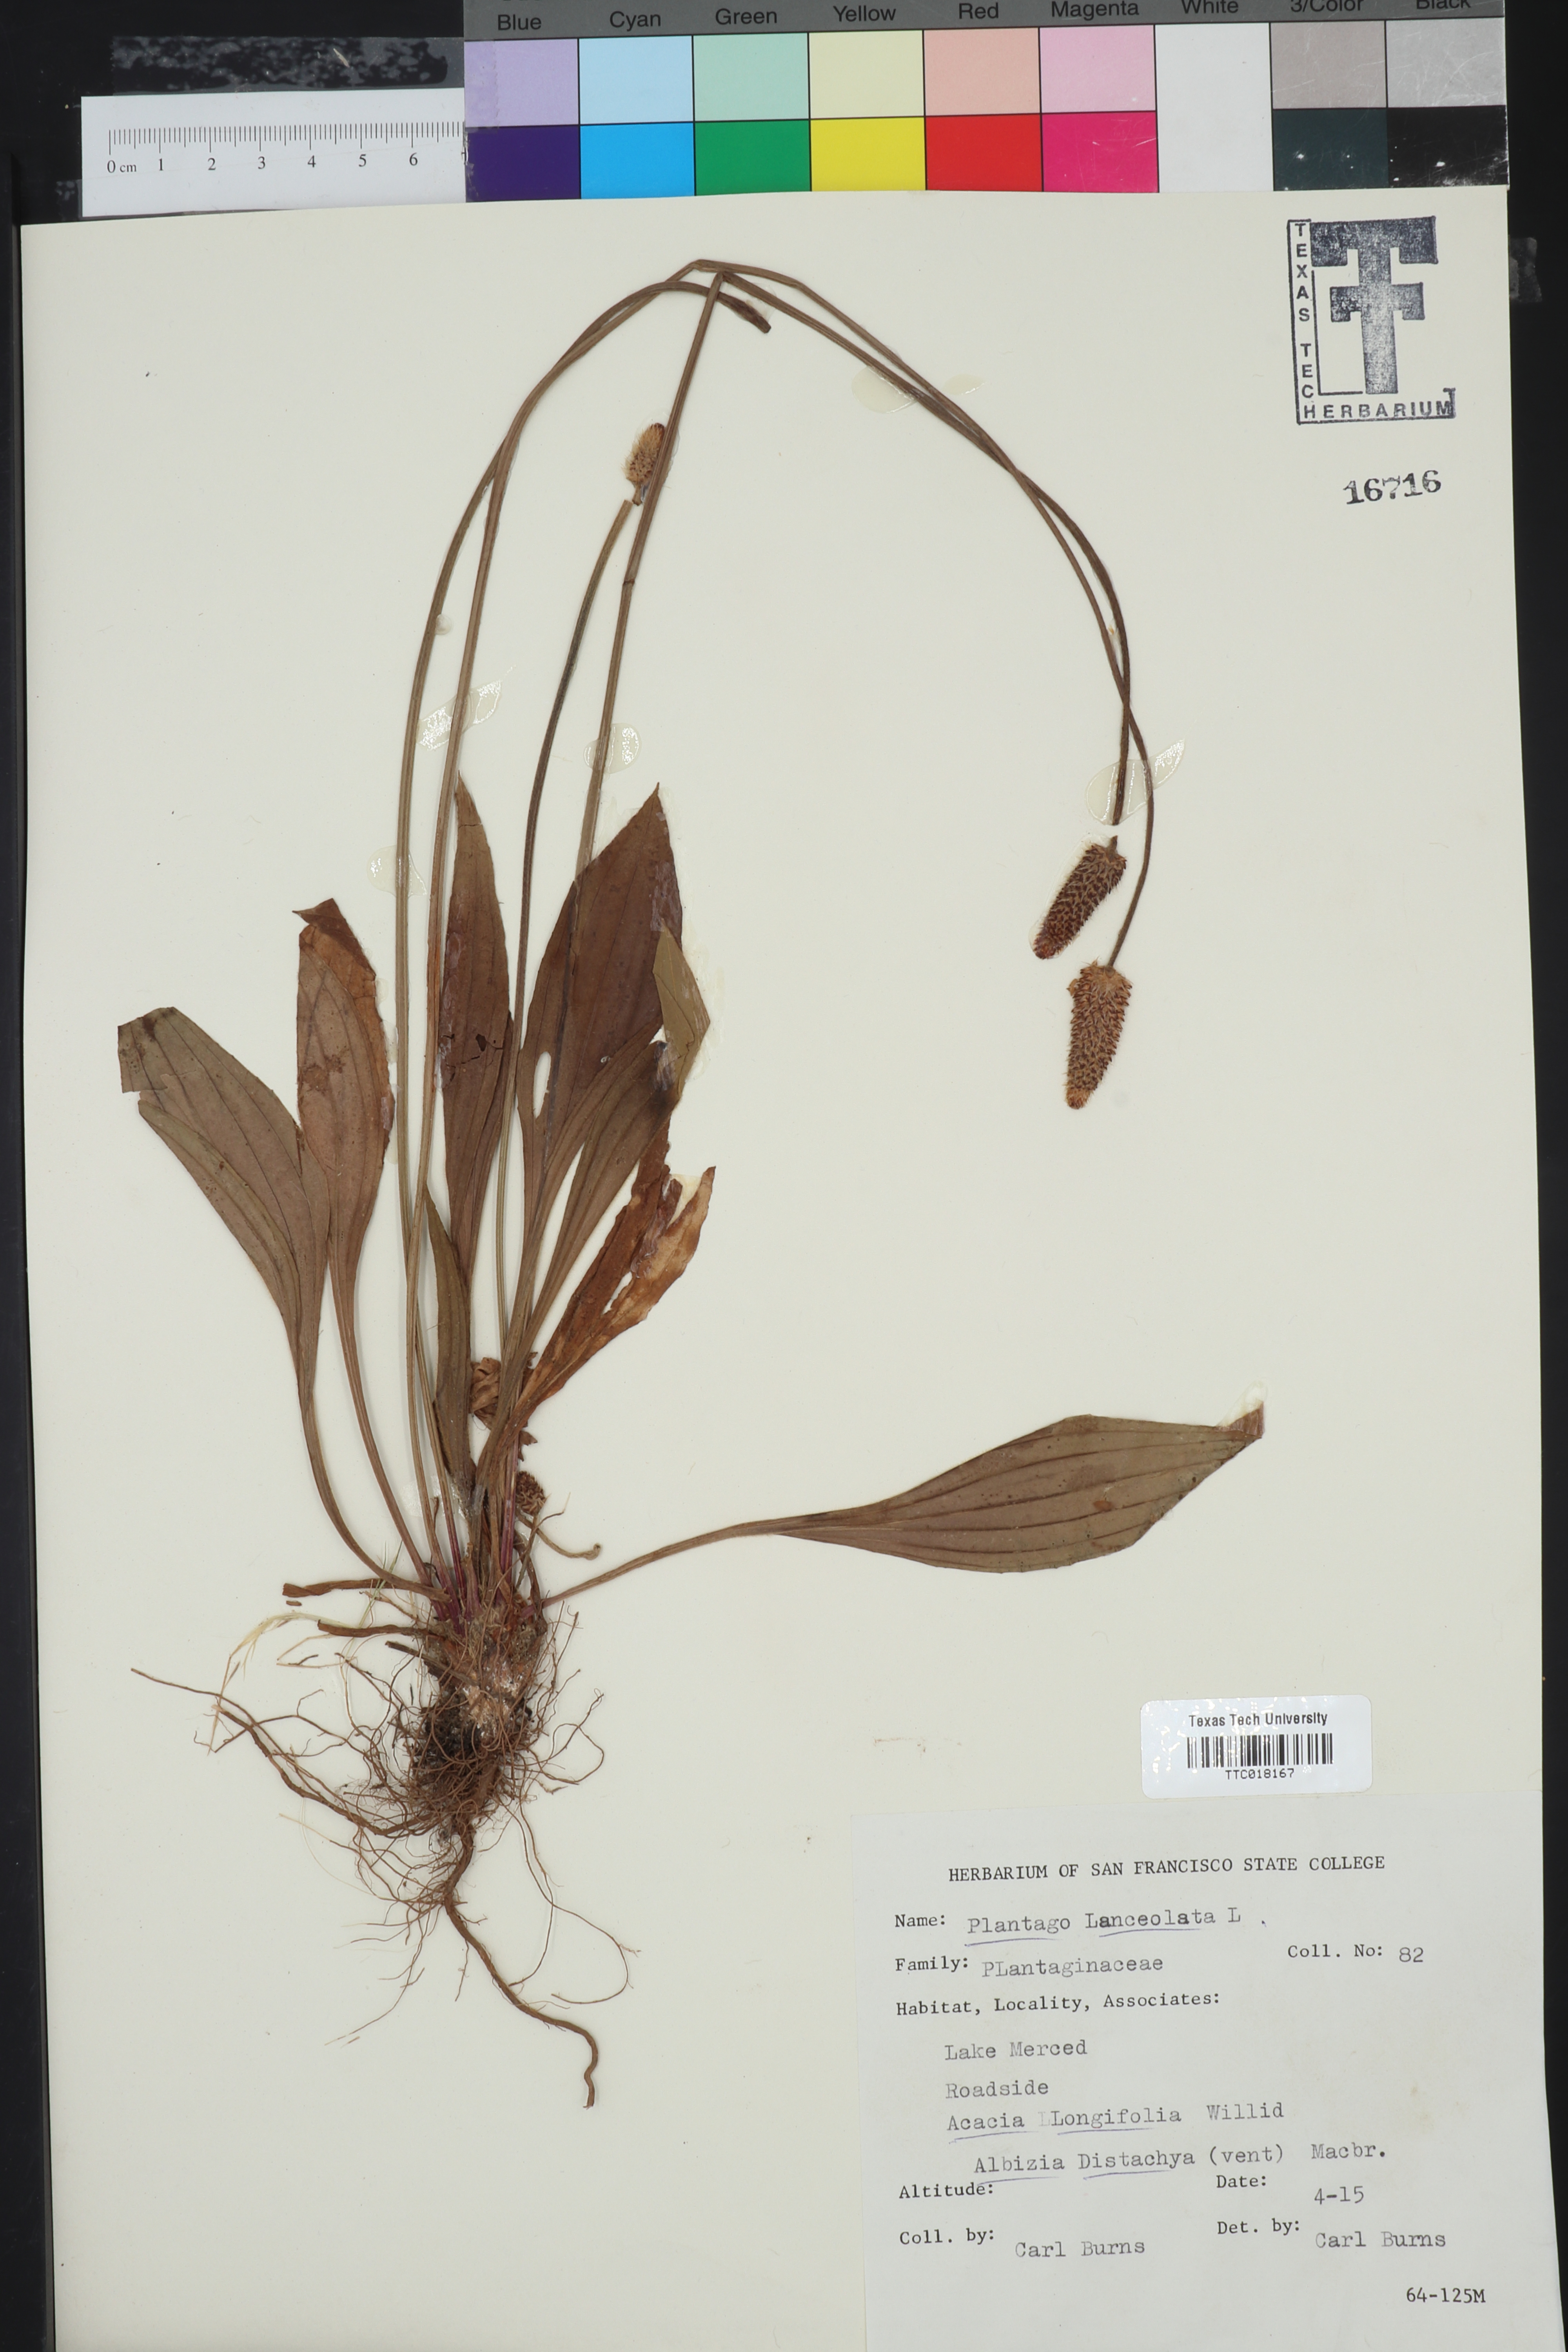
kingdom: Plantae
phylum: Tracheophyta
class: Magnoliopsida
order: Lamiales
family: Plantaginaceae
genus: Plantago
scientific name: Plantago lanceolata
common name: Ribwort plantain
